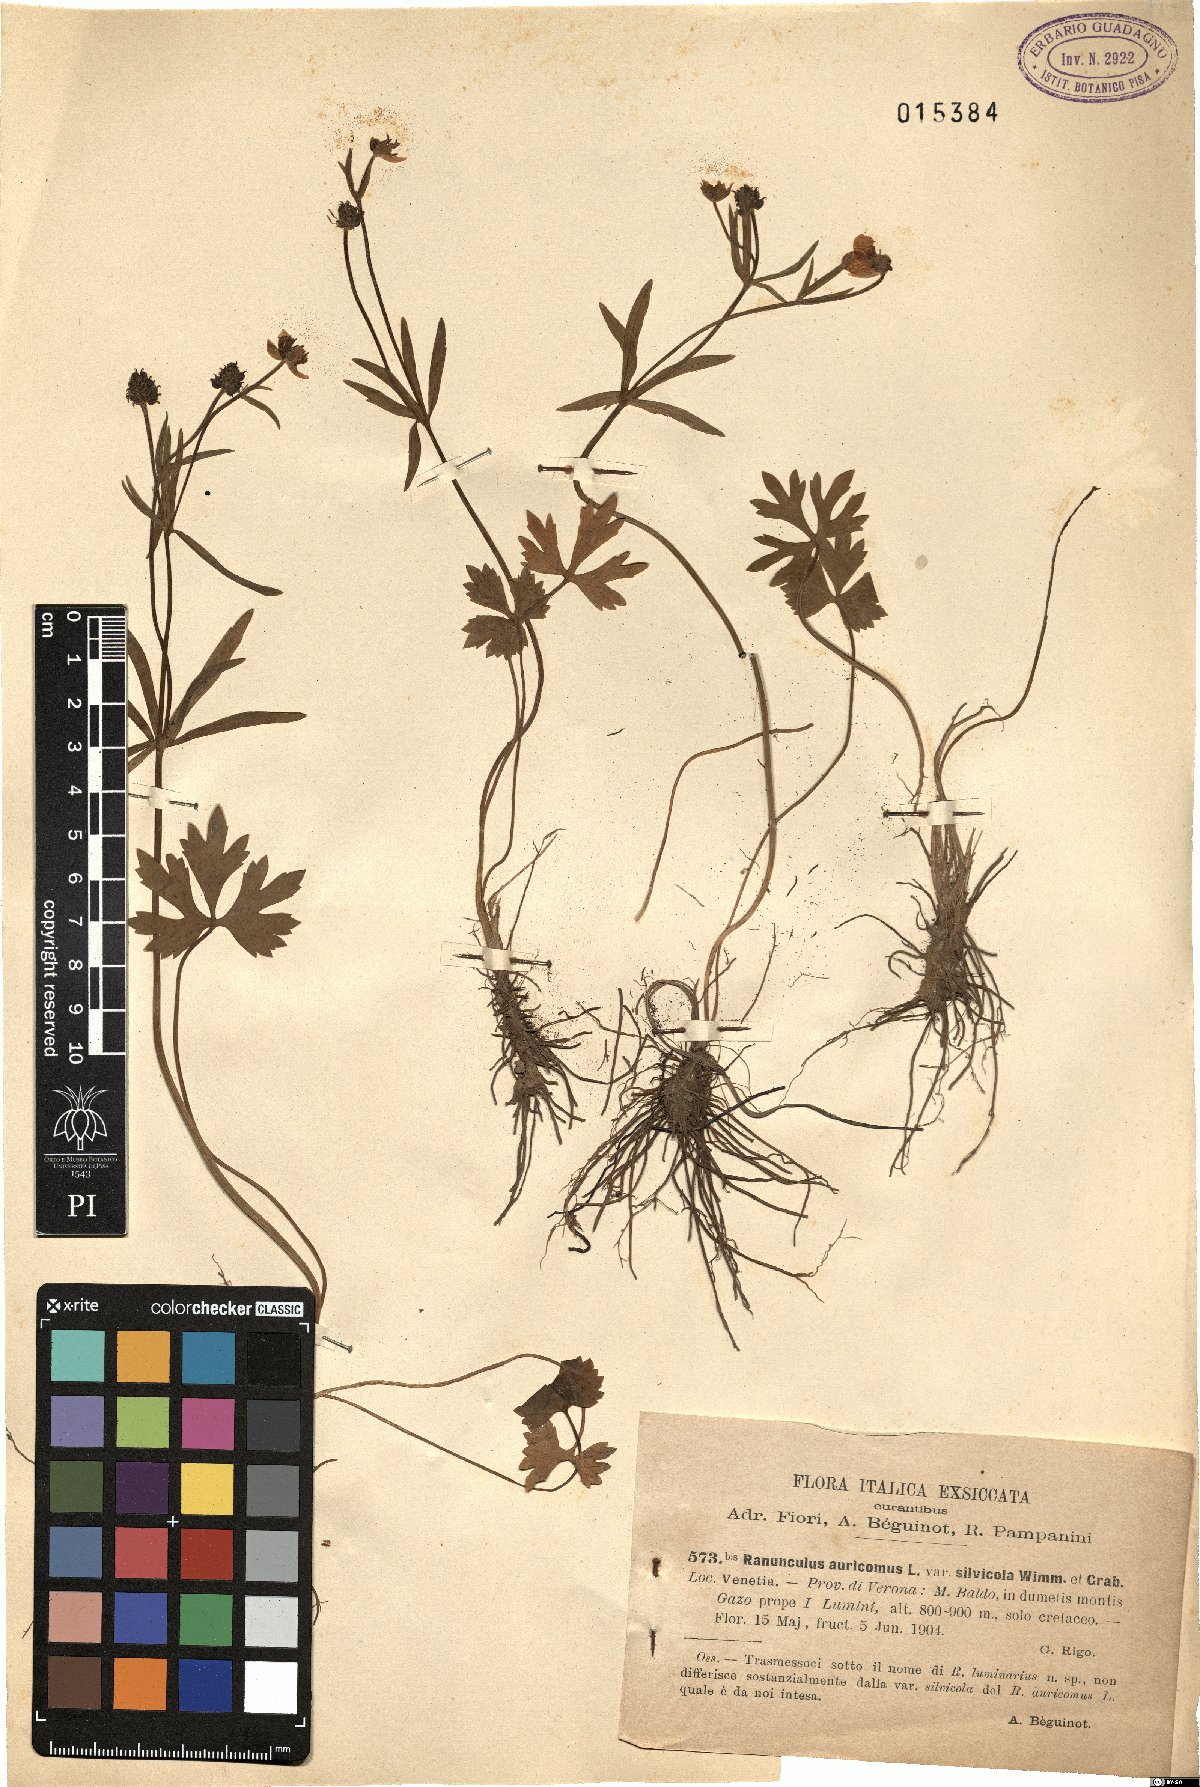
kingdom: Plantae
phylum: Tracheophyta
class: Magnoliopsida
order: Ranunculales
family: Ranunculaceae
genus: Ranunculus
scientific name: Ranunculus silvicola
